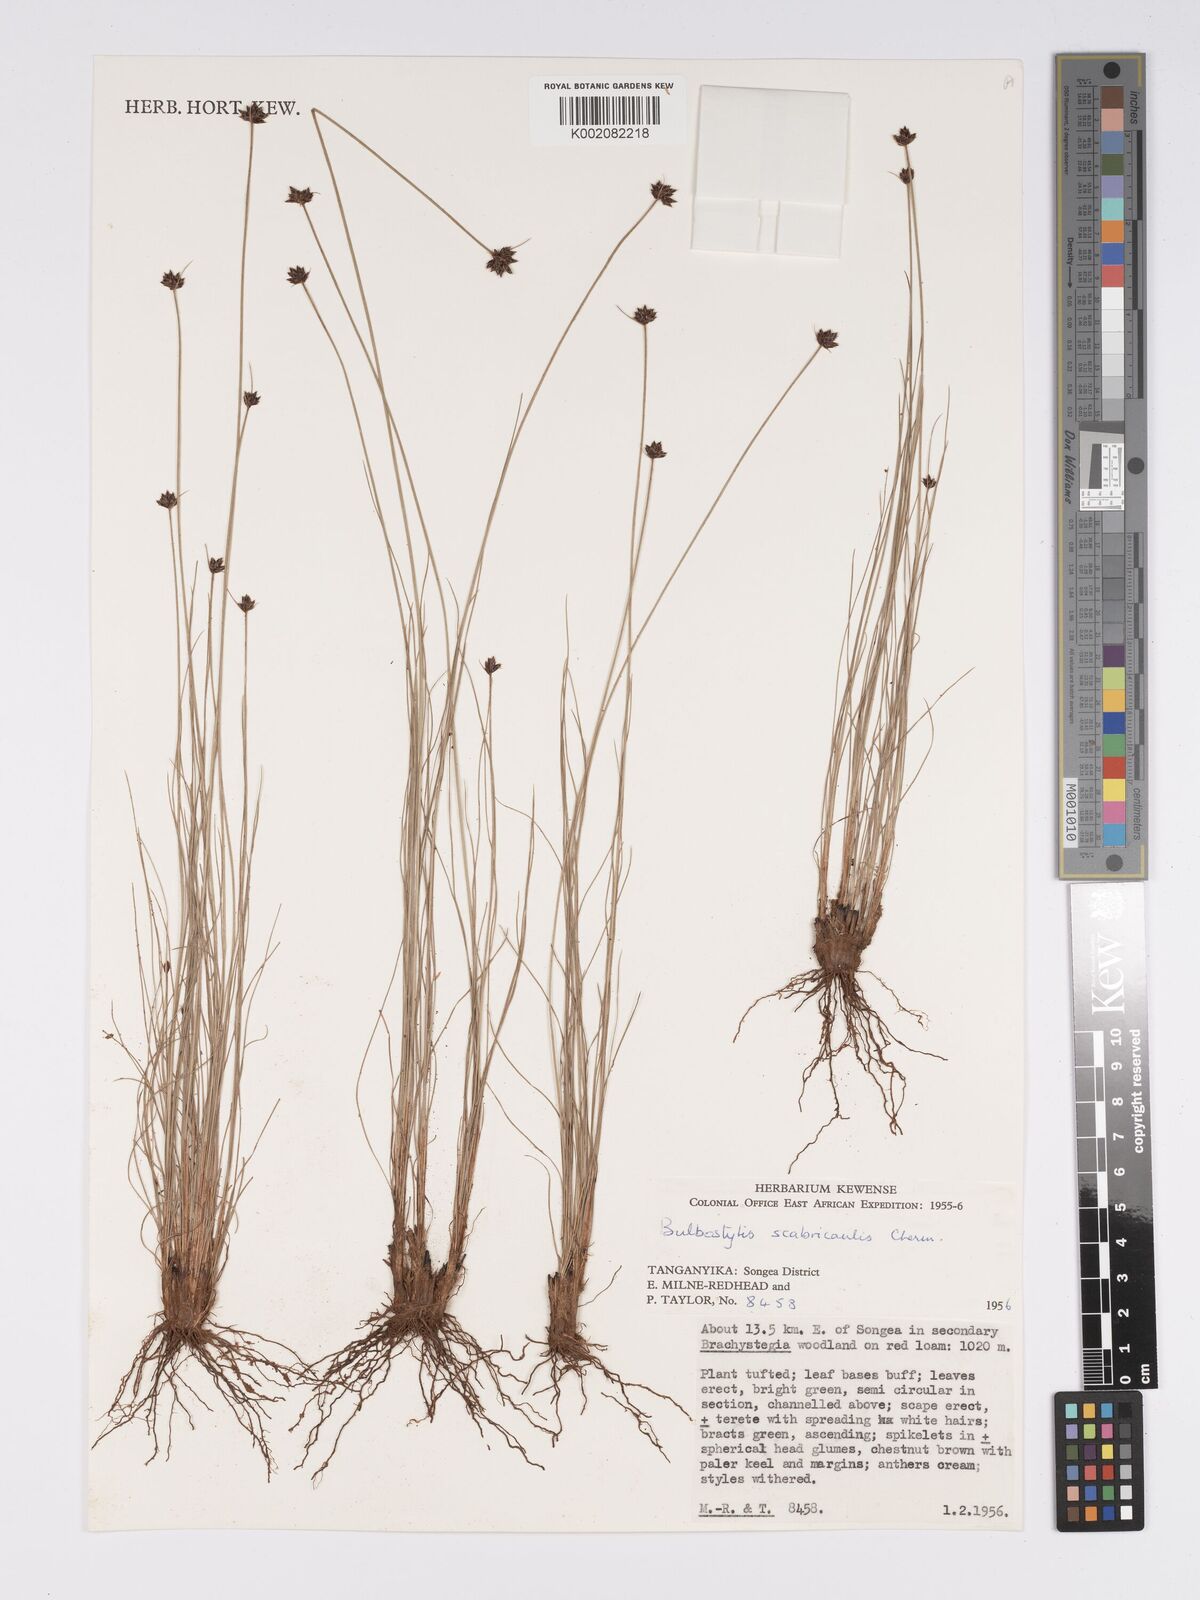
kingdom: Plantae
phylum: Tracheophyta
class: Liliopsida
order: Poales
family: Cyperaceae
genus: Bulbostylis
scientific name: Bulbostylis scabricaulis
